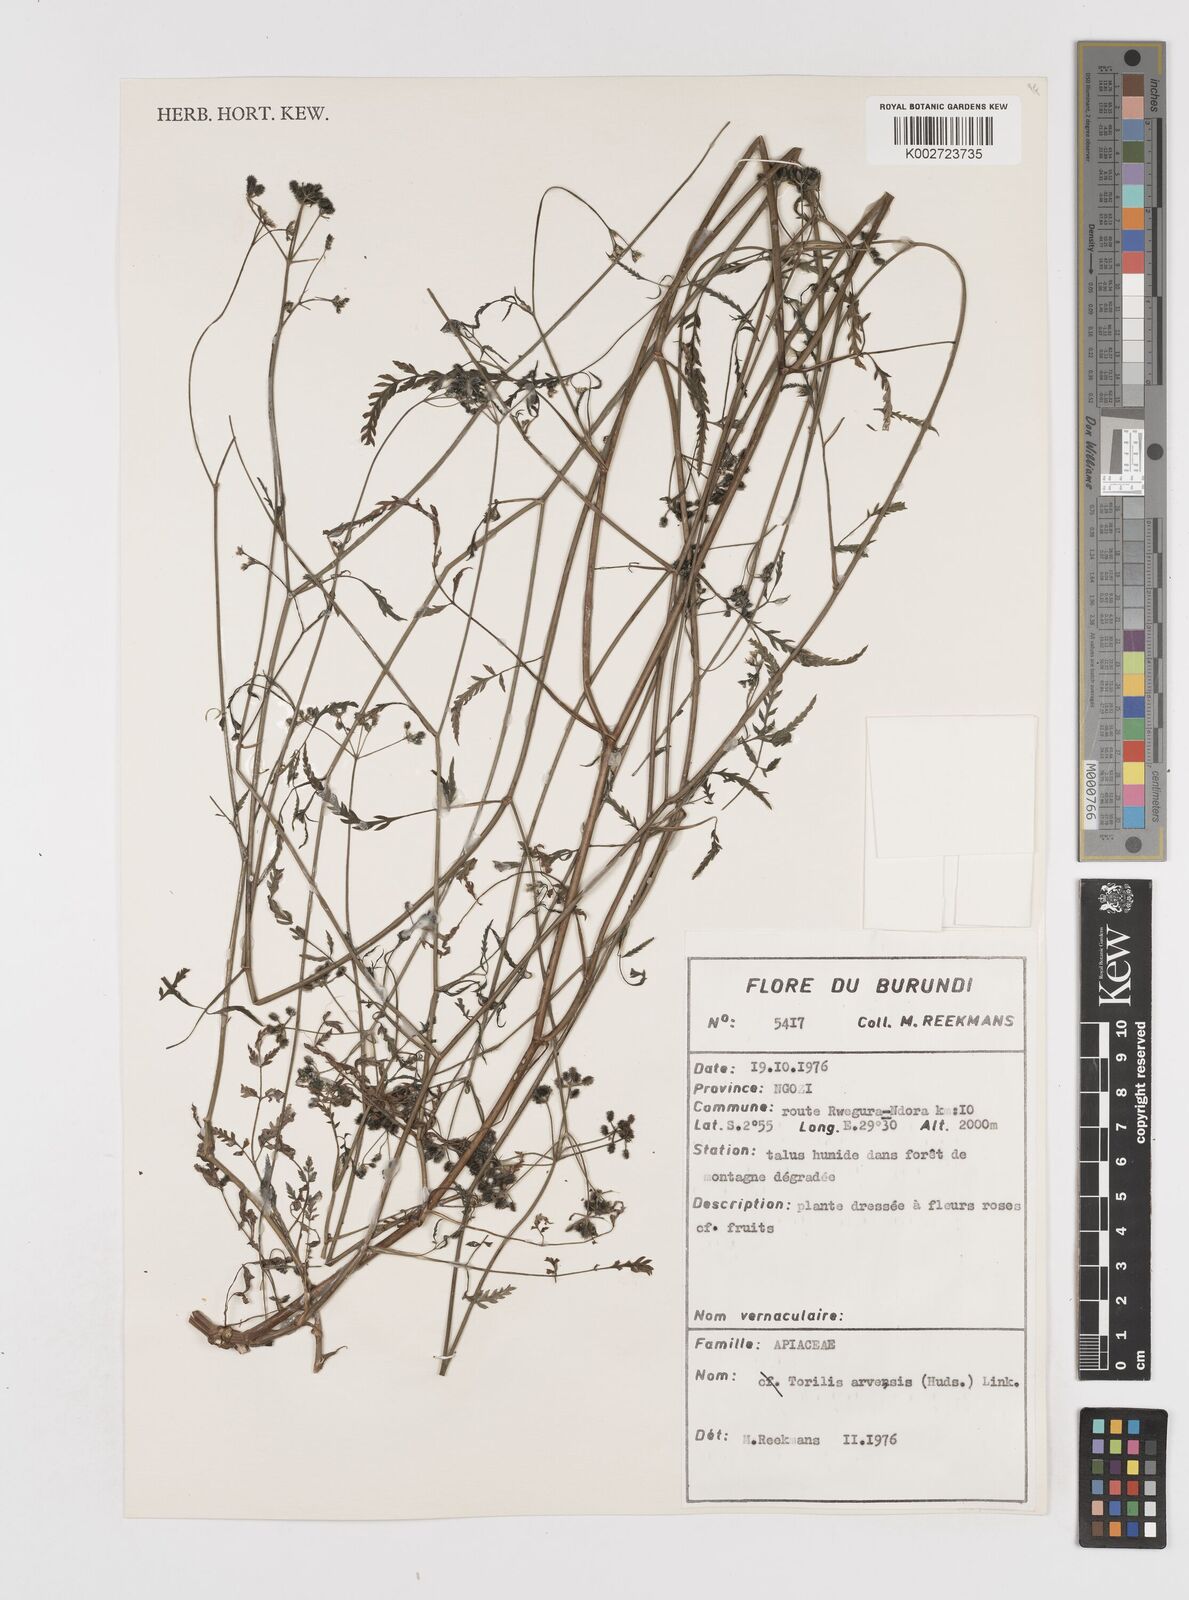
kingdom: Plantae
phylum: Tracheophyta
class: Magnoliopsida
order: Apiales
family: Apiaceae
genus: Torilis
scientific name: Torilis arvensis
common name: Spreading hedge-parsley
